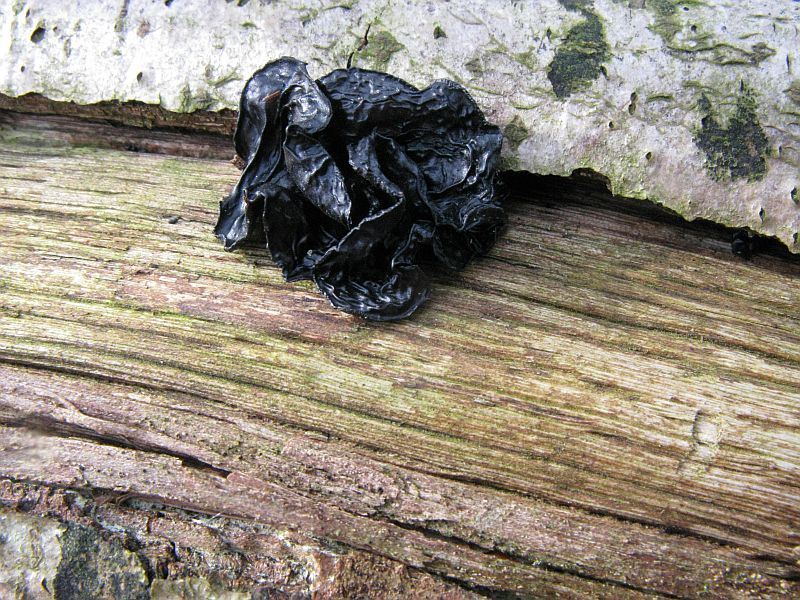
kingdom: Fungi
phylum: Basidiomycota
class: Agaricomycetes
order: Auriculariales
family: Auriculariaceae
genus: Exidia
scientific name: Exidia nigricans
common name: almindelig bævretop
